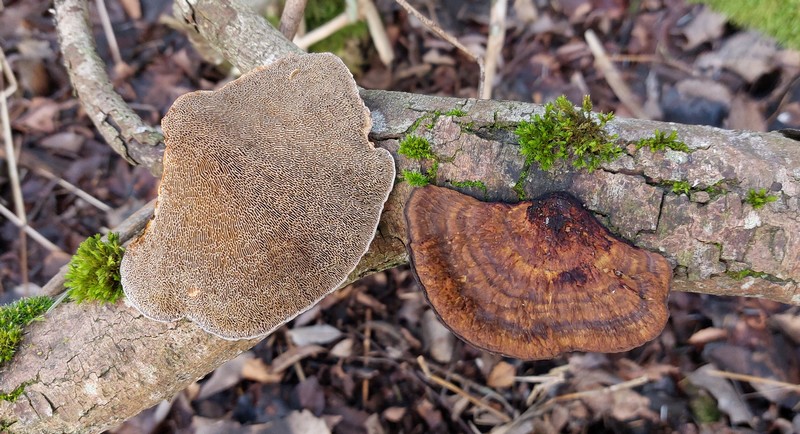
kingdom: Fungi
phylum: Basidiomycota
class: Agaricomycetes
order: Polyporales
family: Polyporaceae
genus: Daedaleopsis
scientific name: Daedaleopsis confragosa
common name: rødmende læderporesvamp
